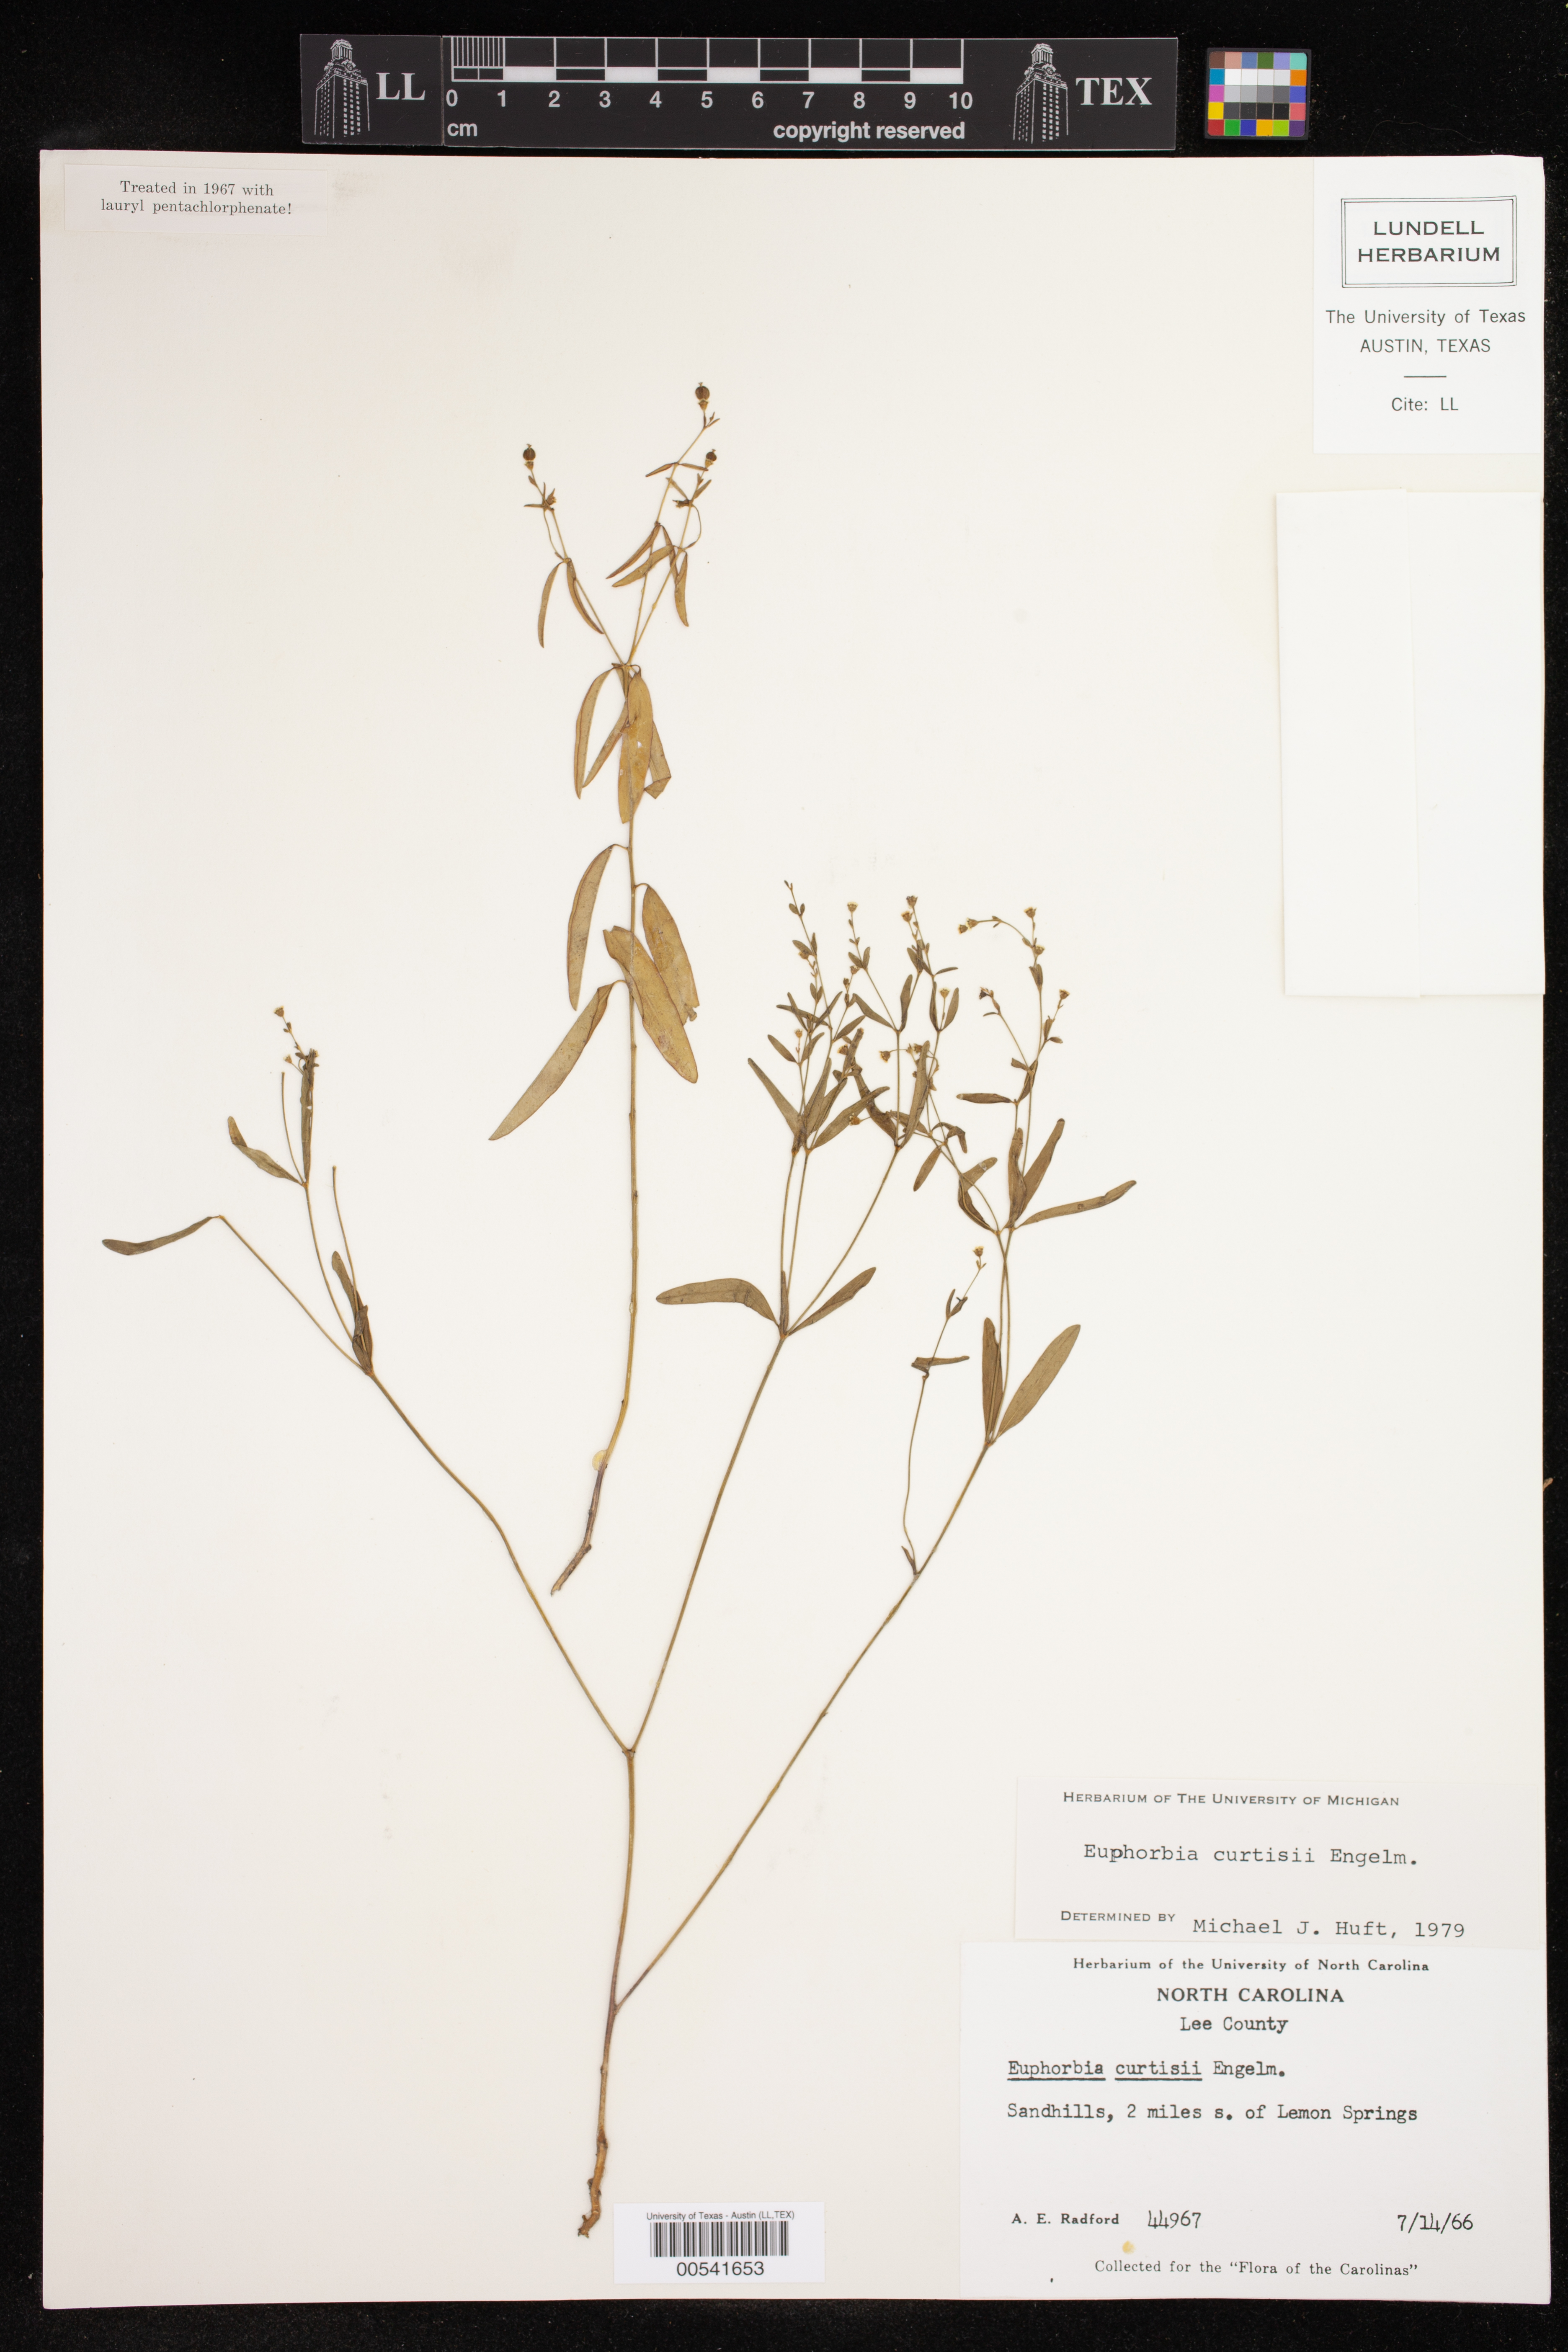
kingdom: Plantae
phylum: Tracheophyta
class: Magnoliopsida
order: Malpighiales
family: Euphorbiaceae
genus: Euphorbia
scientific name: Euphorbia curtisii
